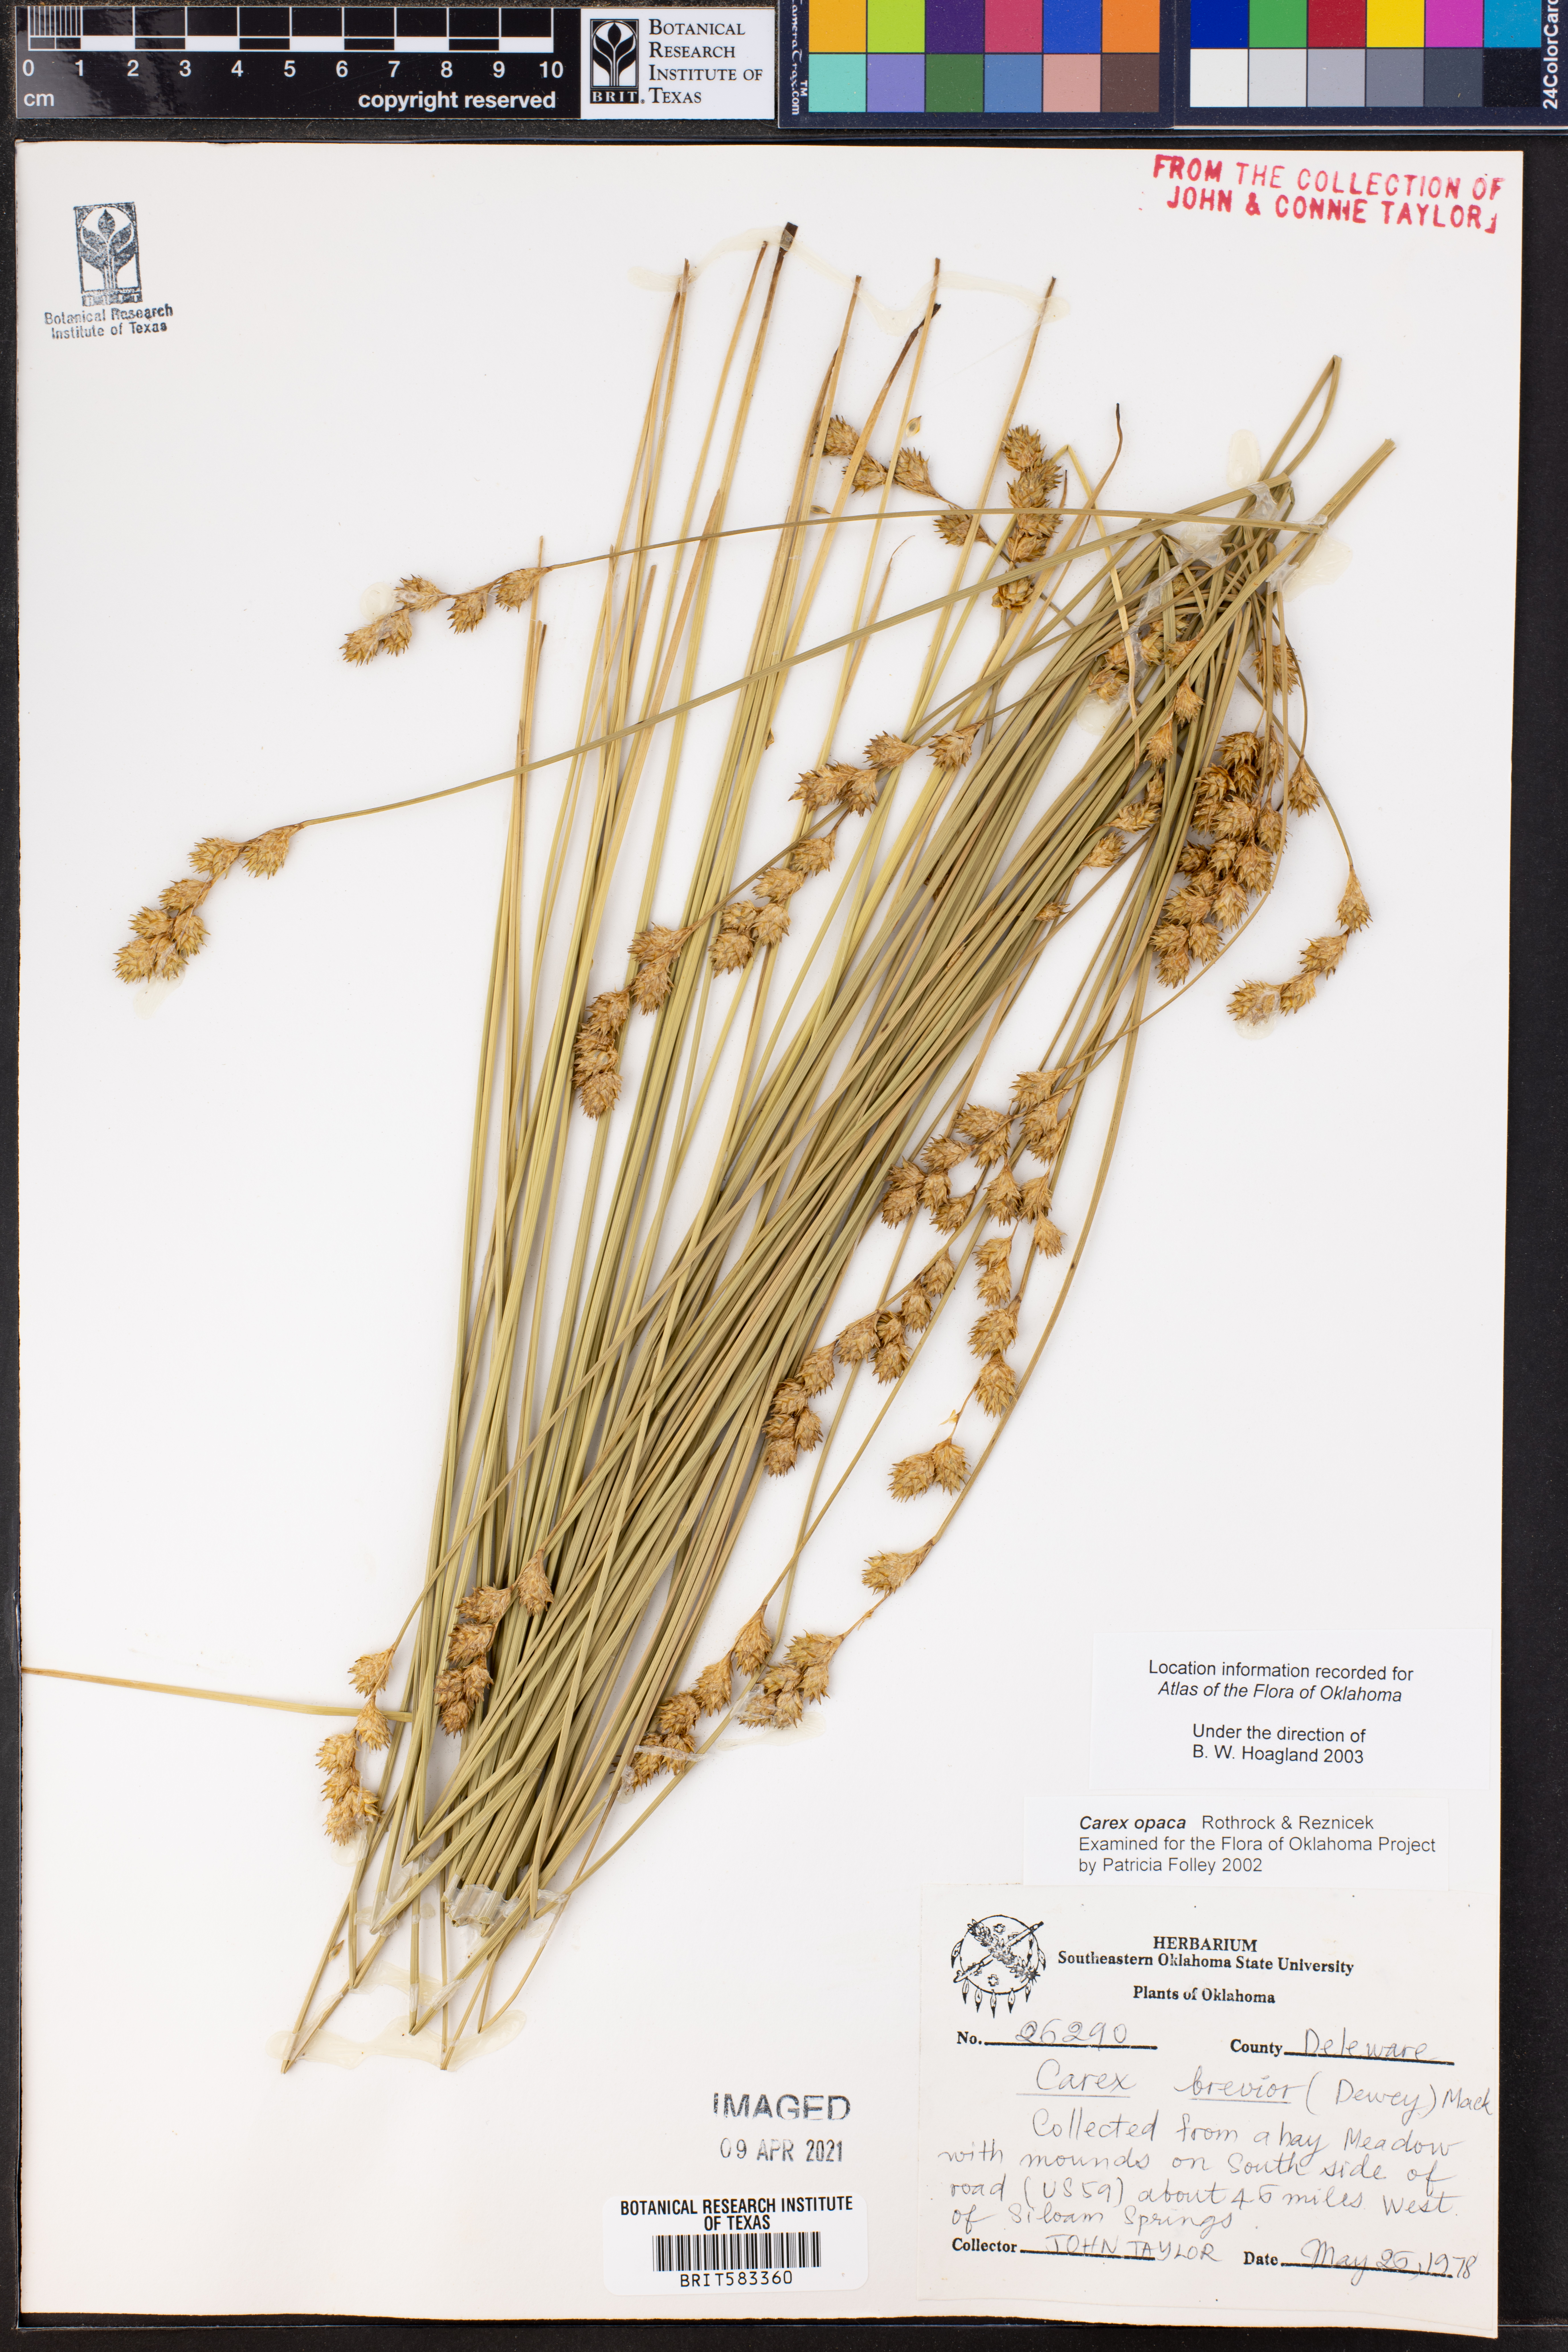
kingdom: Plantae
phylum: Tracheophyta
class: Liliopsida
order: Poales
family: Cyperaceae
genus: Carex
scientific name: Carex opaca
